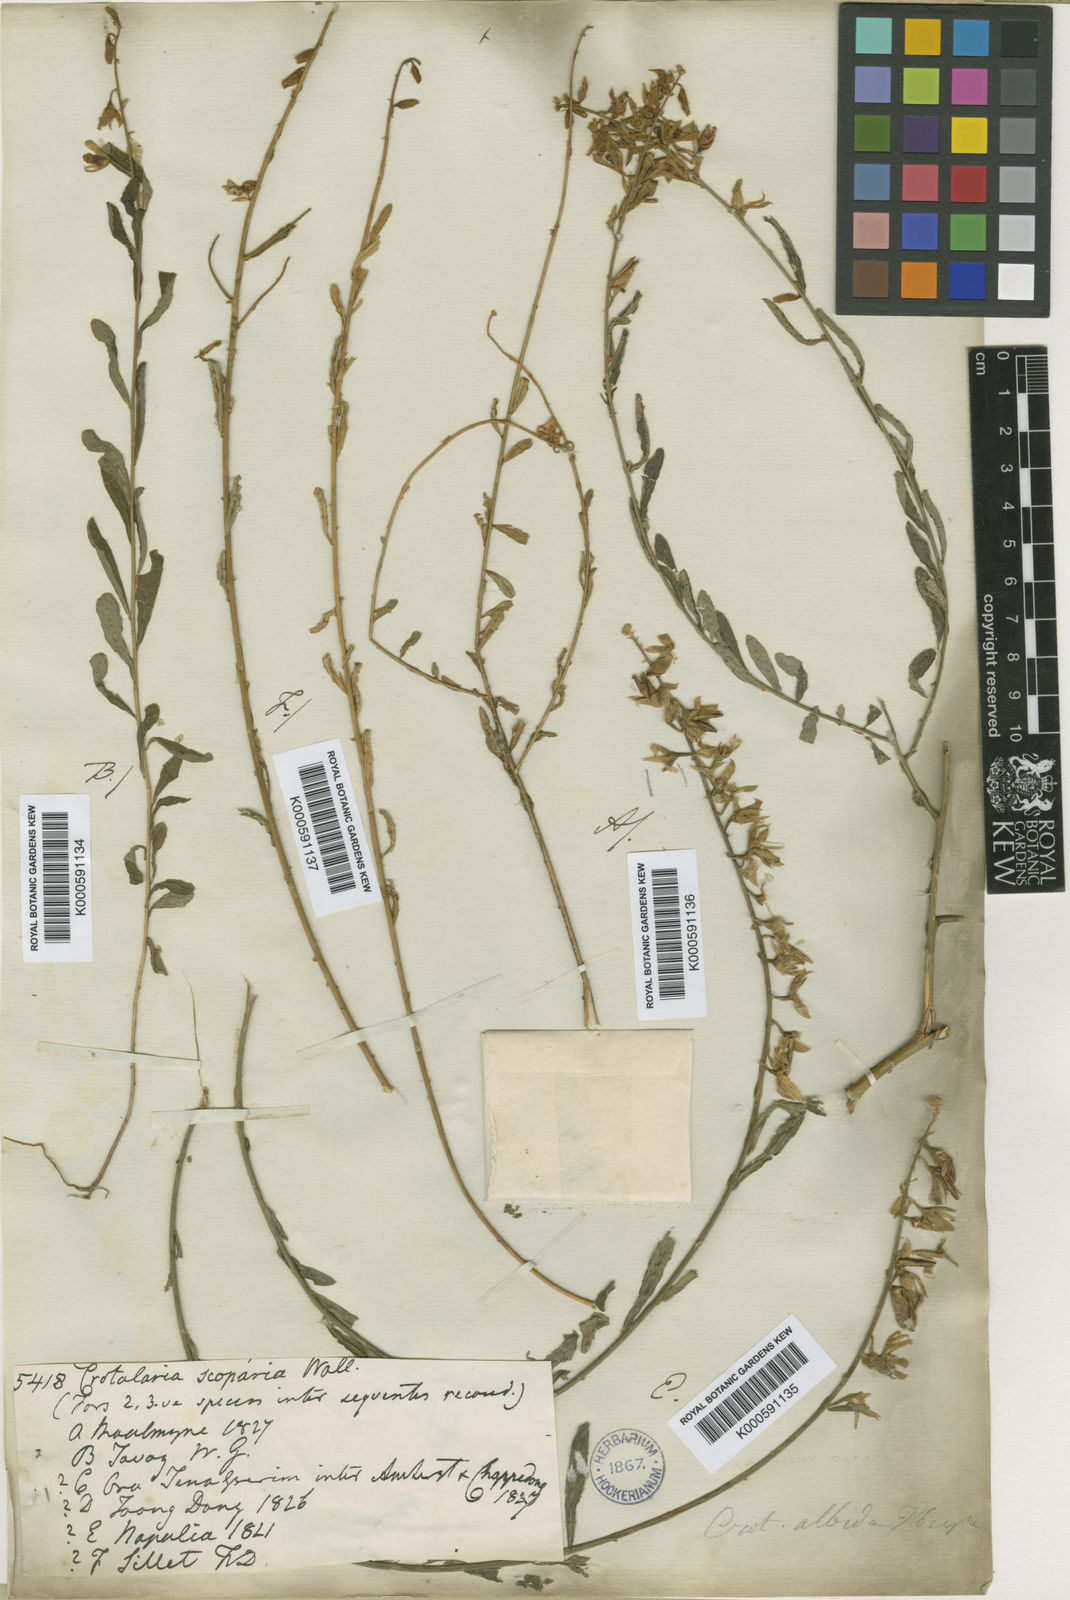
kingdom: Plantae
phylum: Tracheophyta
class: Magnoliopsida
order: Fabales
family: Fabaceae
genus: Crotalaria
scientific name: Crotalaria albida
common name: Taiwan crotalaria
